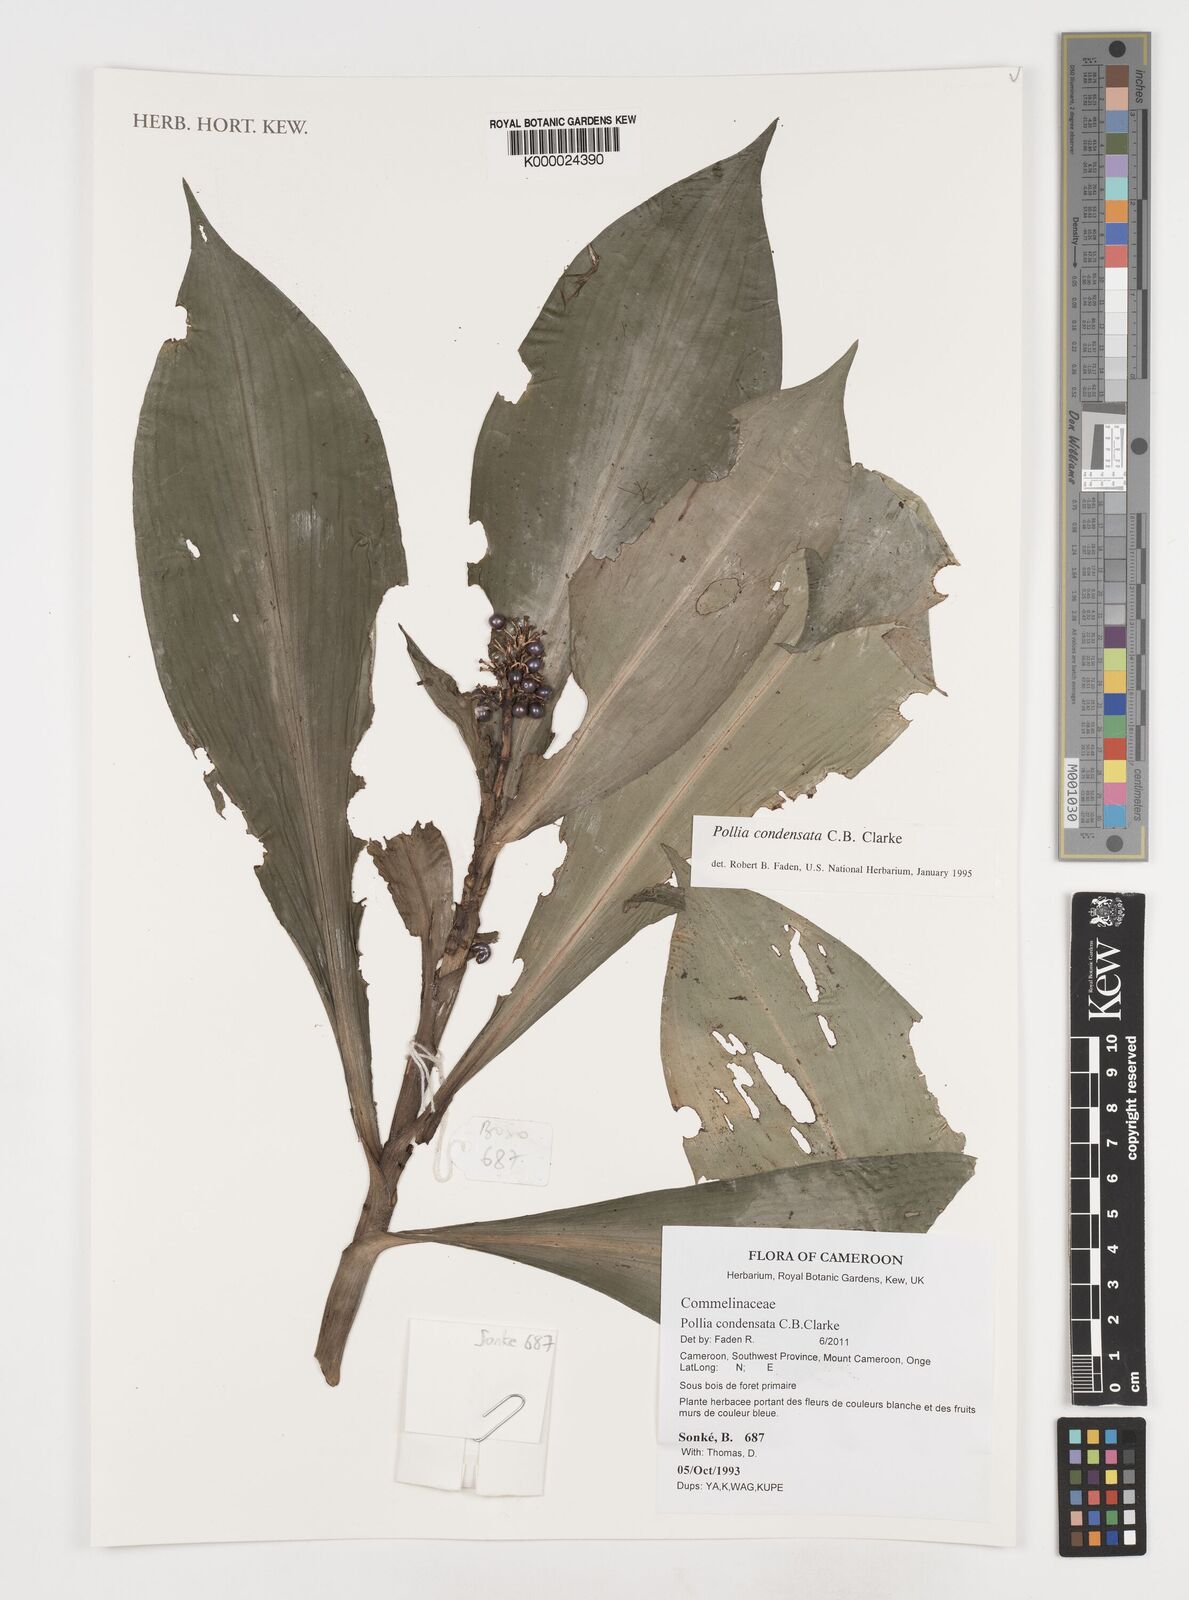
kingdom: Plantae
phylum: Tracheophyta
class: Liliopsida
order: Commelinales
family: Commelinaceae
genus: Pollia
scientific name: Pollia condensata
